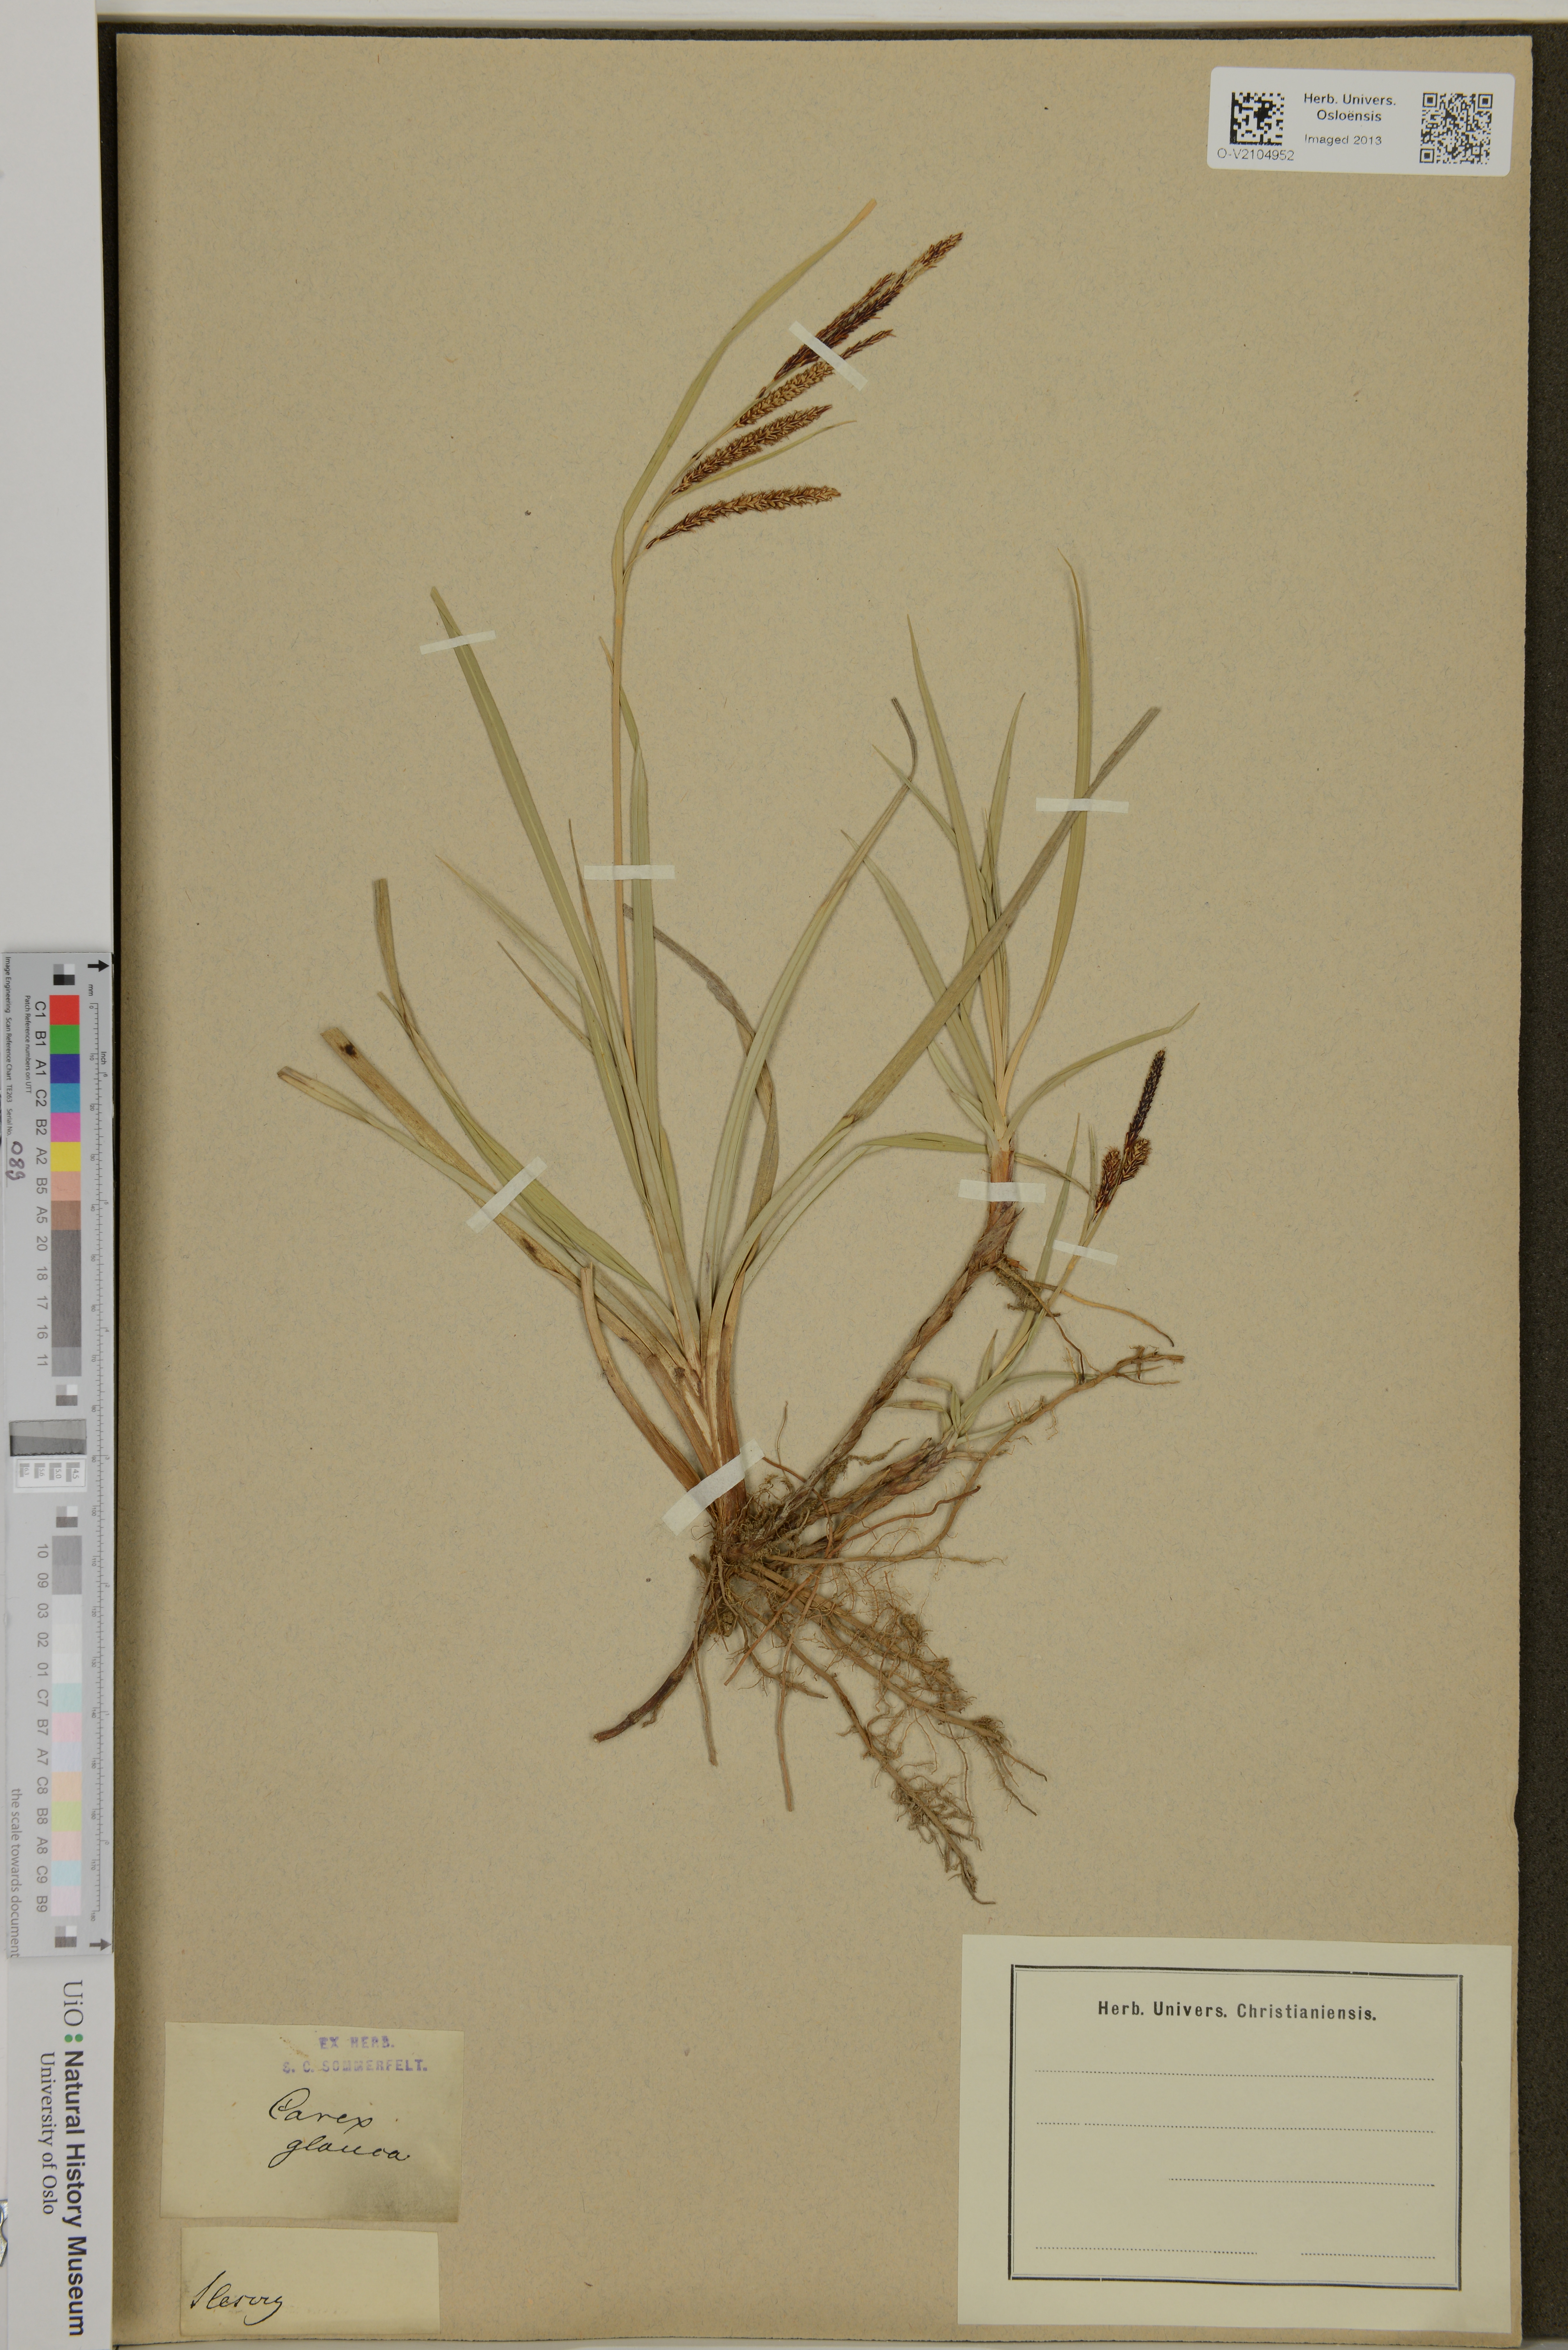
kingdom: Plantae
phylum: Tracheophyta
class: Liliopsida
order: Poales
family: Cyperaceae
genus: Carex
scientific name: Carex flacca
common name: Glaucous sedge
